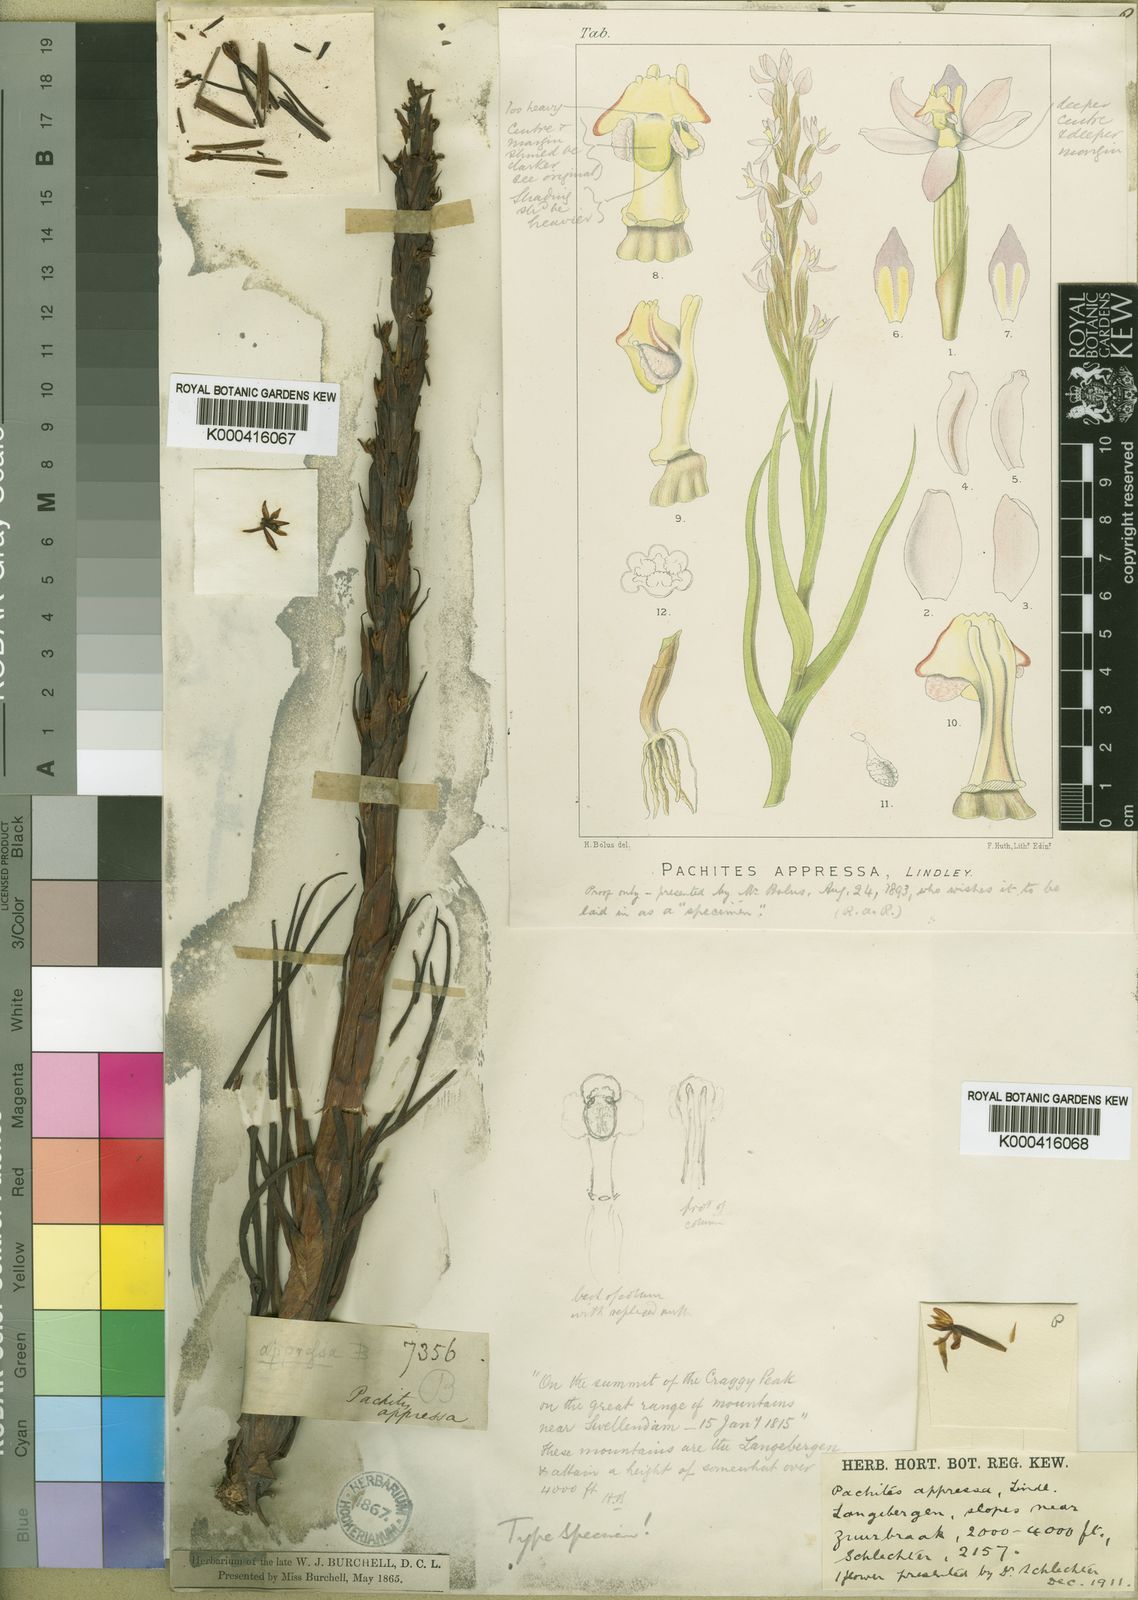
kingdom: Plantae
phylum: Tracheophyta
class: Liliopsida
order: Asparagales
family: Orchidaceae
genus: Pachites
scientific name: Pachites appressus
